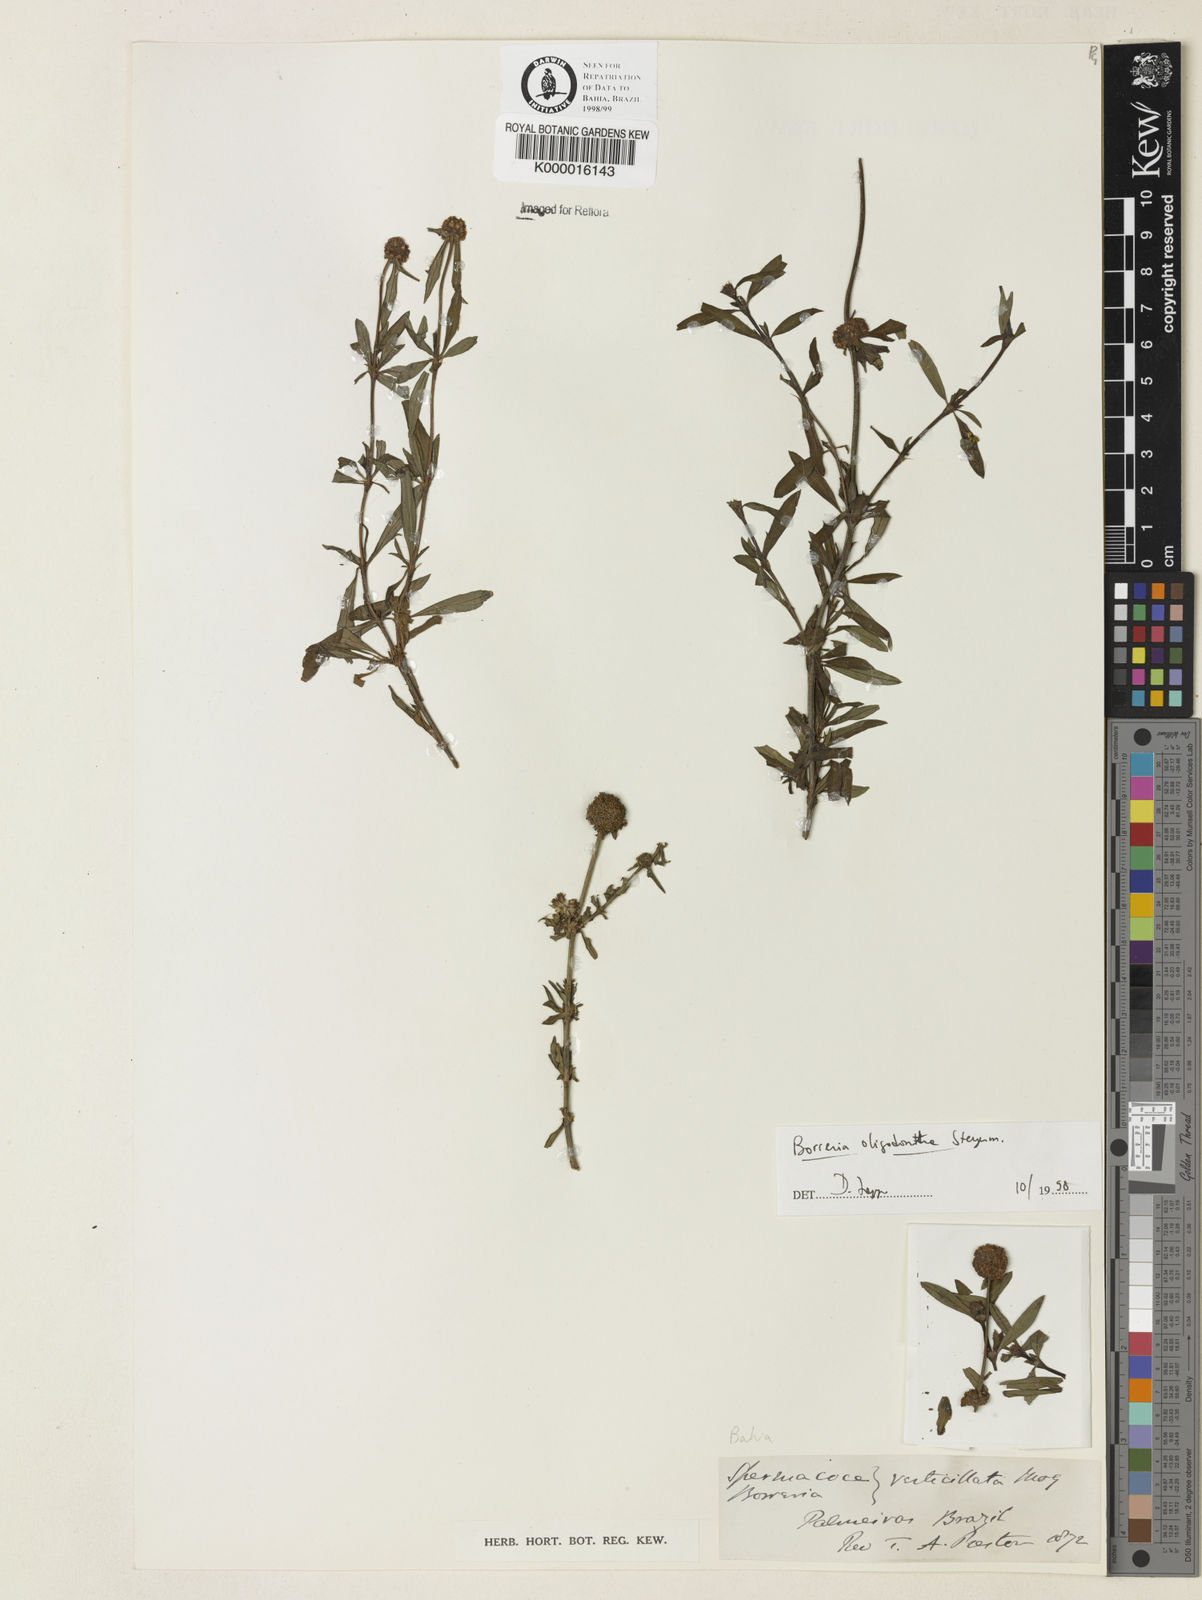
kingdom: Plantae
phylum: Tracheophyta
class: Magnoliopsida
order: Gentianales
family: Rubiaceae
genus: Spermacoce
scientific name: Spermacoce verticillata
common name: Shrubby false buttonweed
